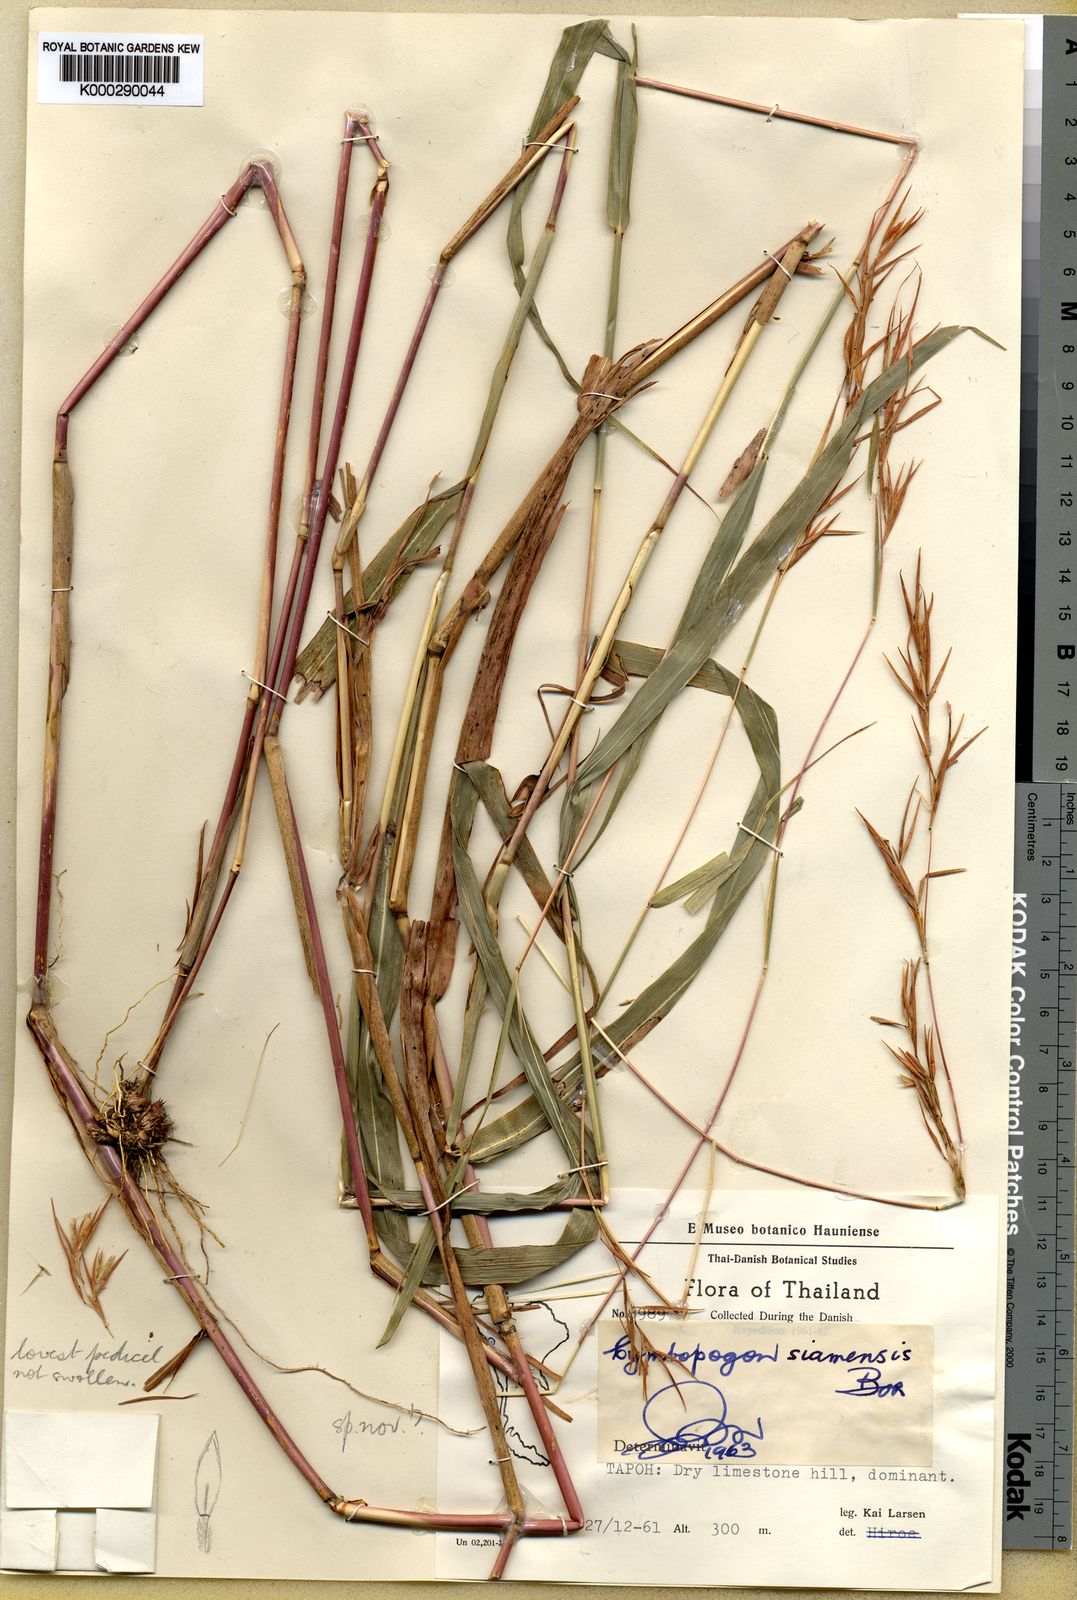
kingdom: Plantae
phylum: Tracheophyta
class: Liliopsida
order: Poales
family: Poaceae
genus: Cymbopogon
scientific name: Cymbopogon cambogiensis
